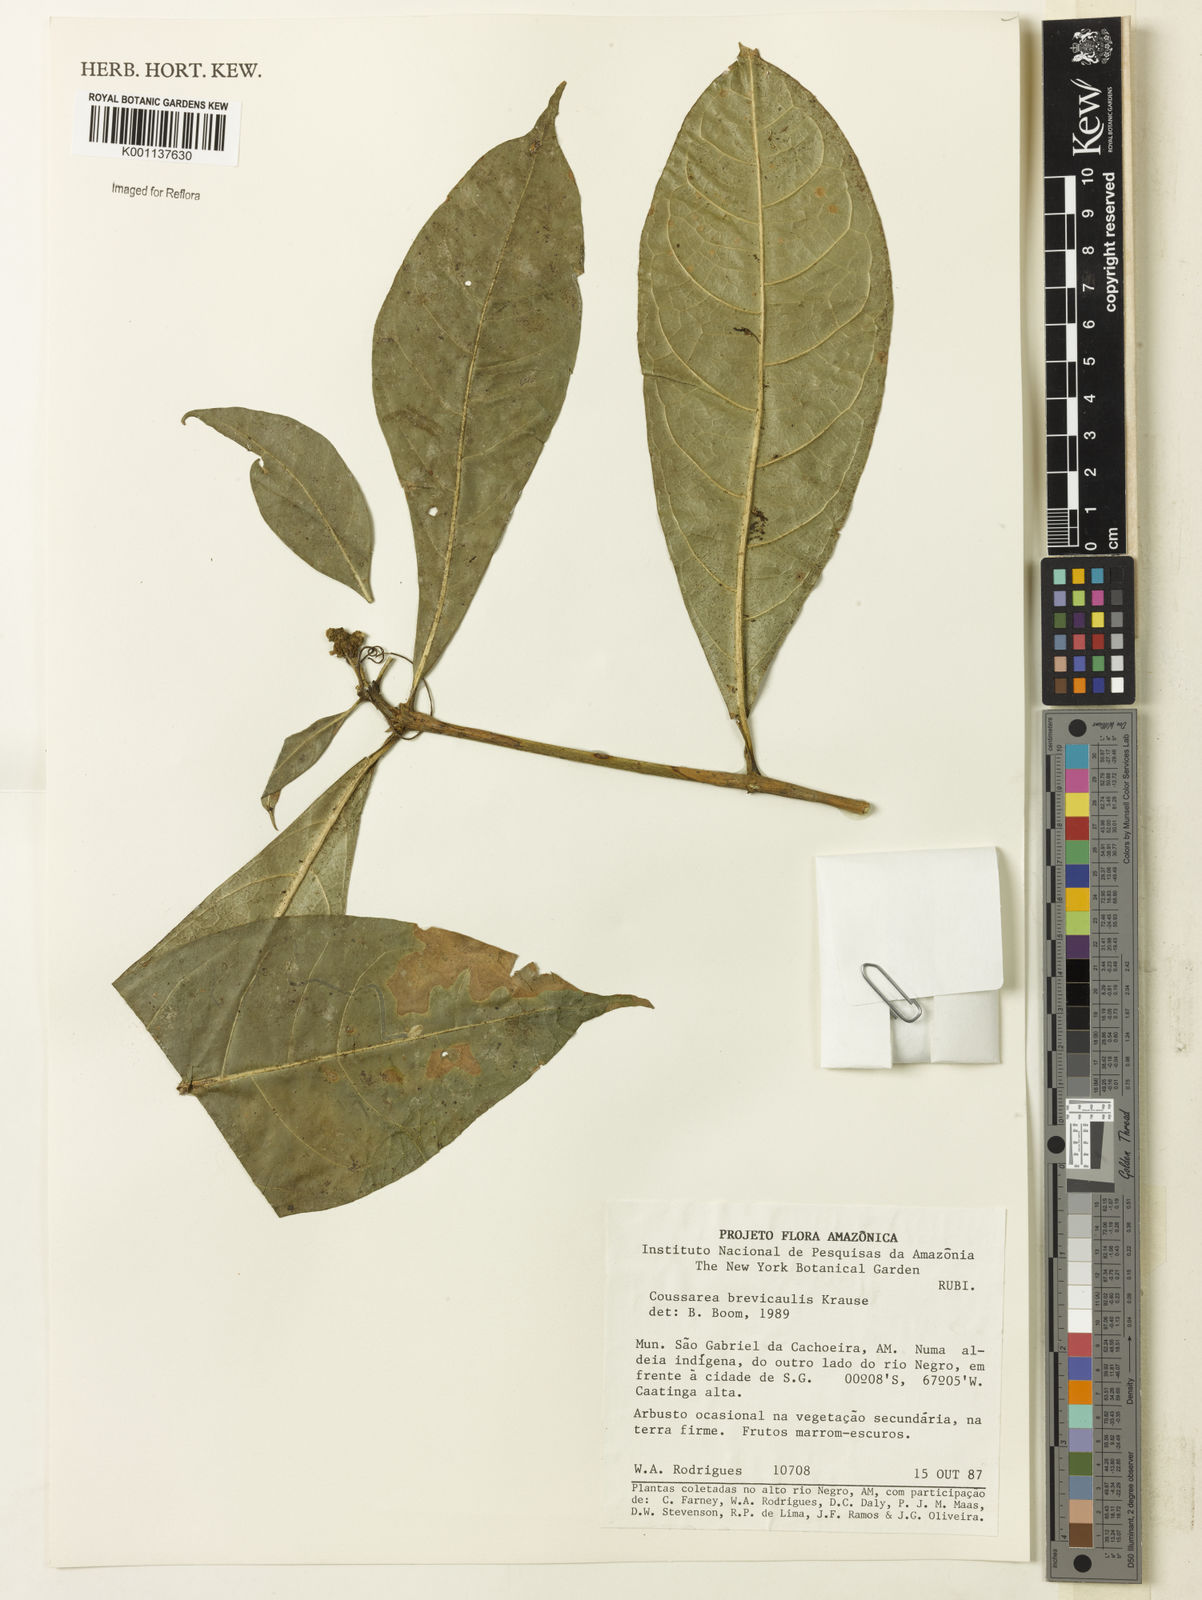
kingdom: Plantae
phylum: Tracheophyta
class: Magnoliopsida
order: Gentianales
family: Rubiaceae
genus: Coussarea
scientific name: Coussarea brevicaulis
